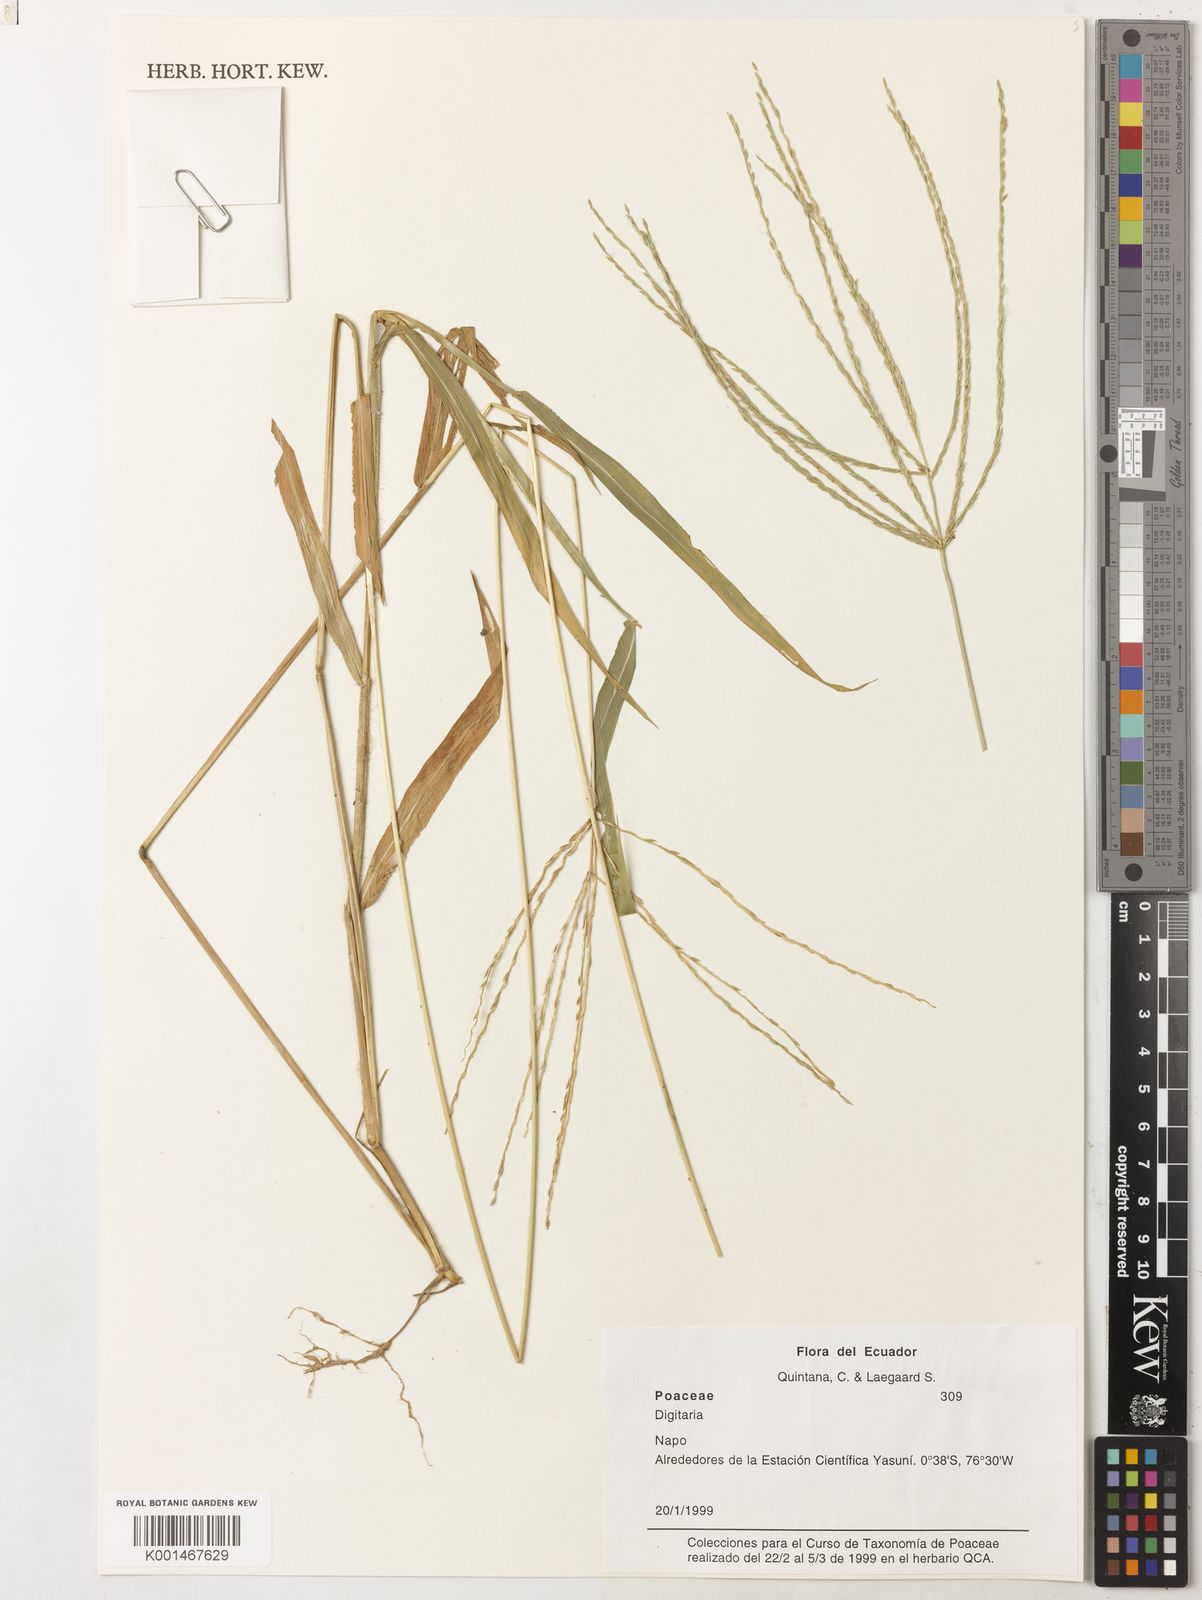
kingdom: Plantae
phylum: Tracheophyta
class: Liliopsida
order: Poales
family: Poaceae
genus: Digitaria
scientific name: Digitaria nuda
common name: Naked crabgrass
